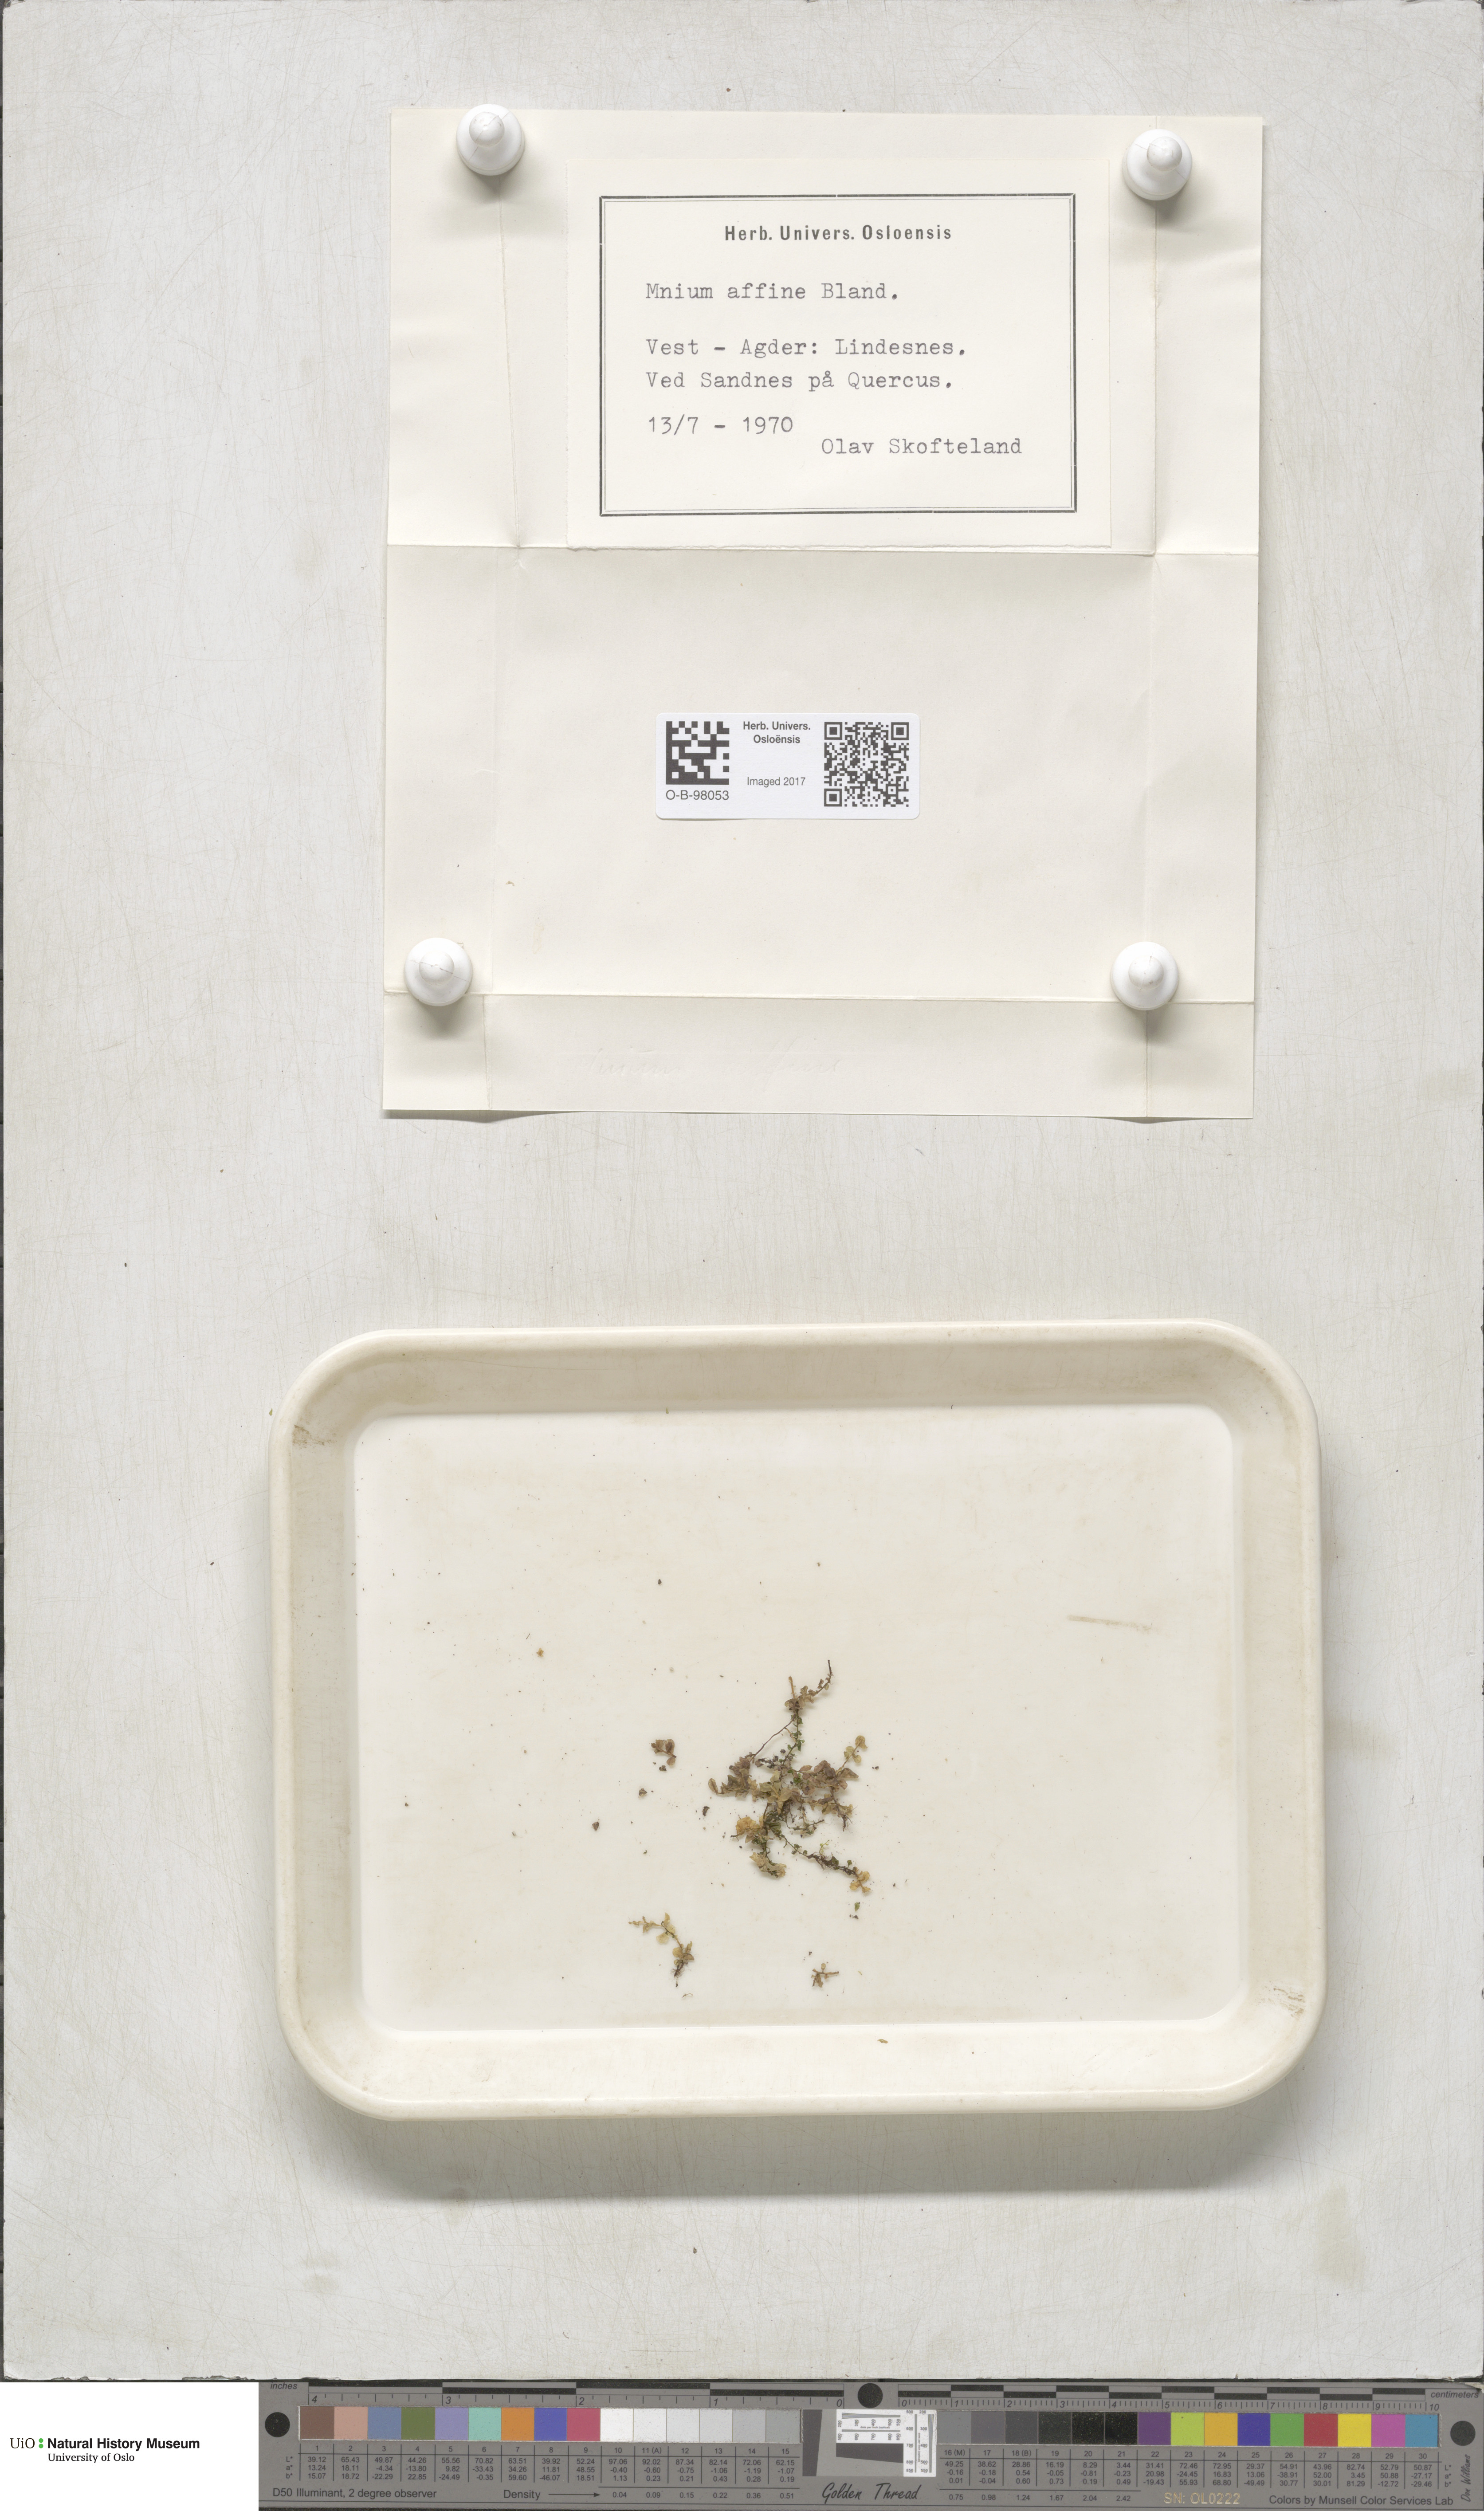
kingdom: Plantae
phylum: Bryophyta
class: Bryopsida
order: Bryales
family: Mniaceae
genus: Plagiomnium
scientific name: Plagiomnium affine
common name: Many-fruited thyme-moss
